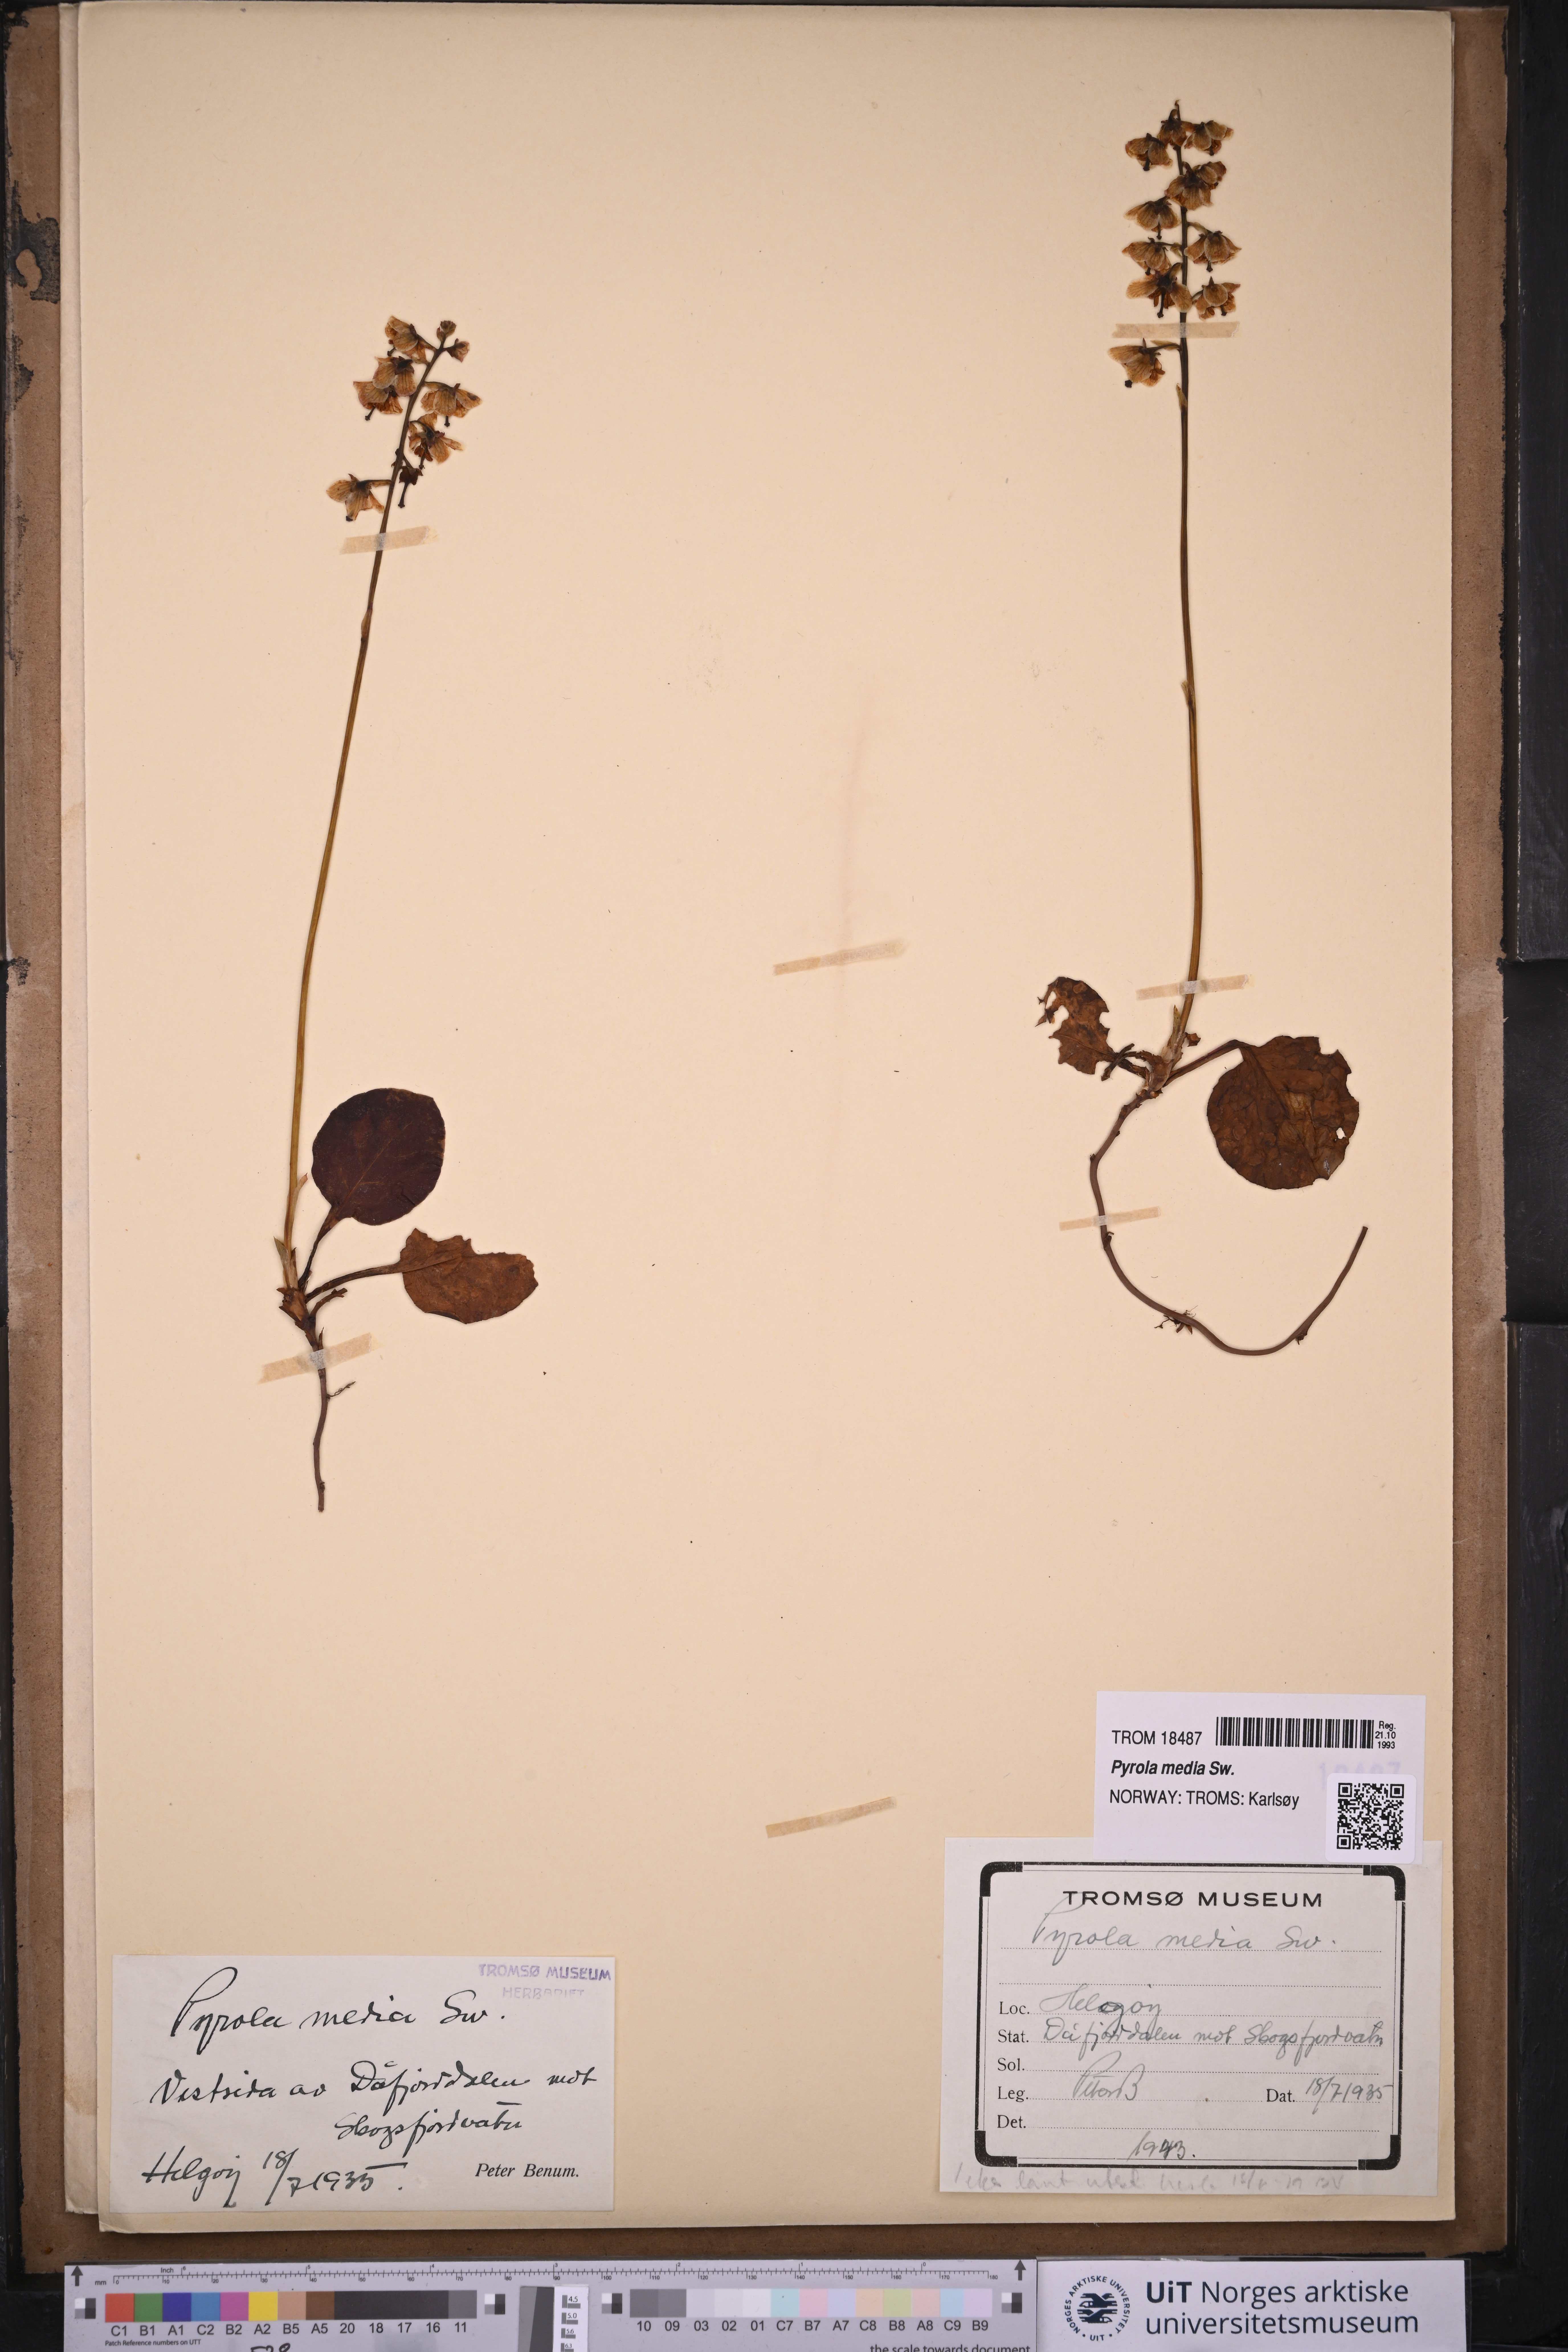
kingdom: Plantae
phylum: Tracheophyta
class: Magnoliopsida
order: Ericales
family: Ericaceae
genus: Pyrola
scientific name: Pyrola media
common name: Intermediate wintergreen
